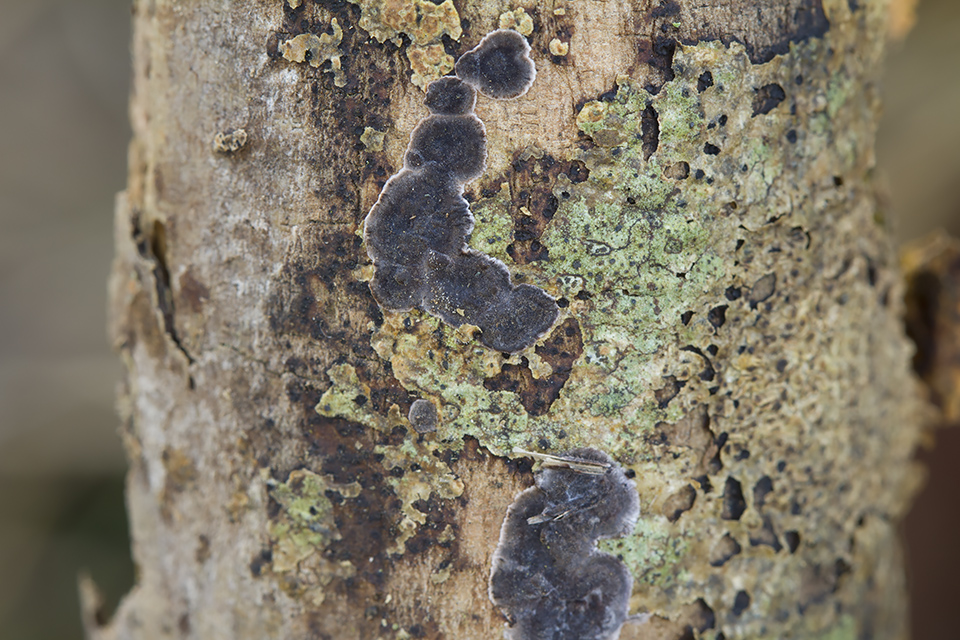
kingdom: Fungi
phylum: Basidiomycota
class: Agaricomycetes
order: Corticiales
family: Corticiaceae
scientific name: Corticiaceae
